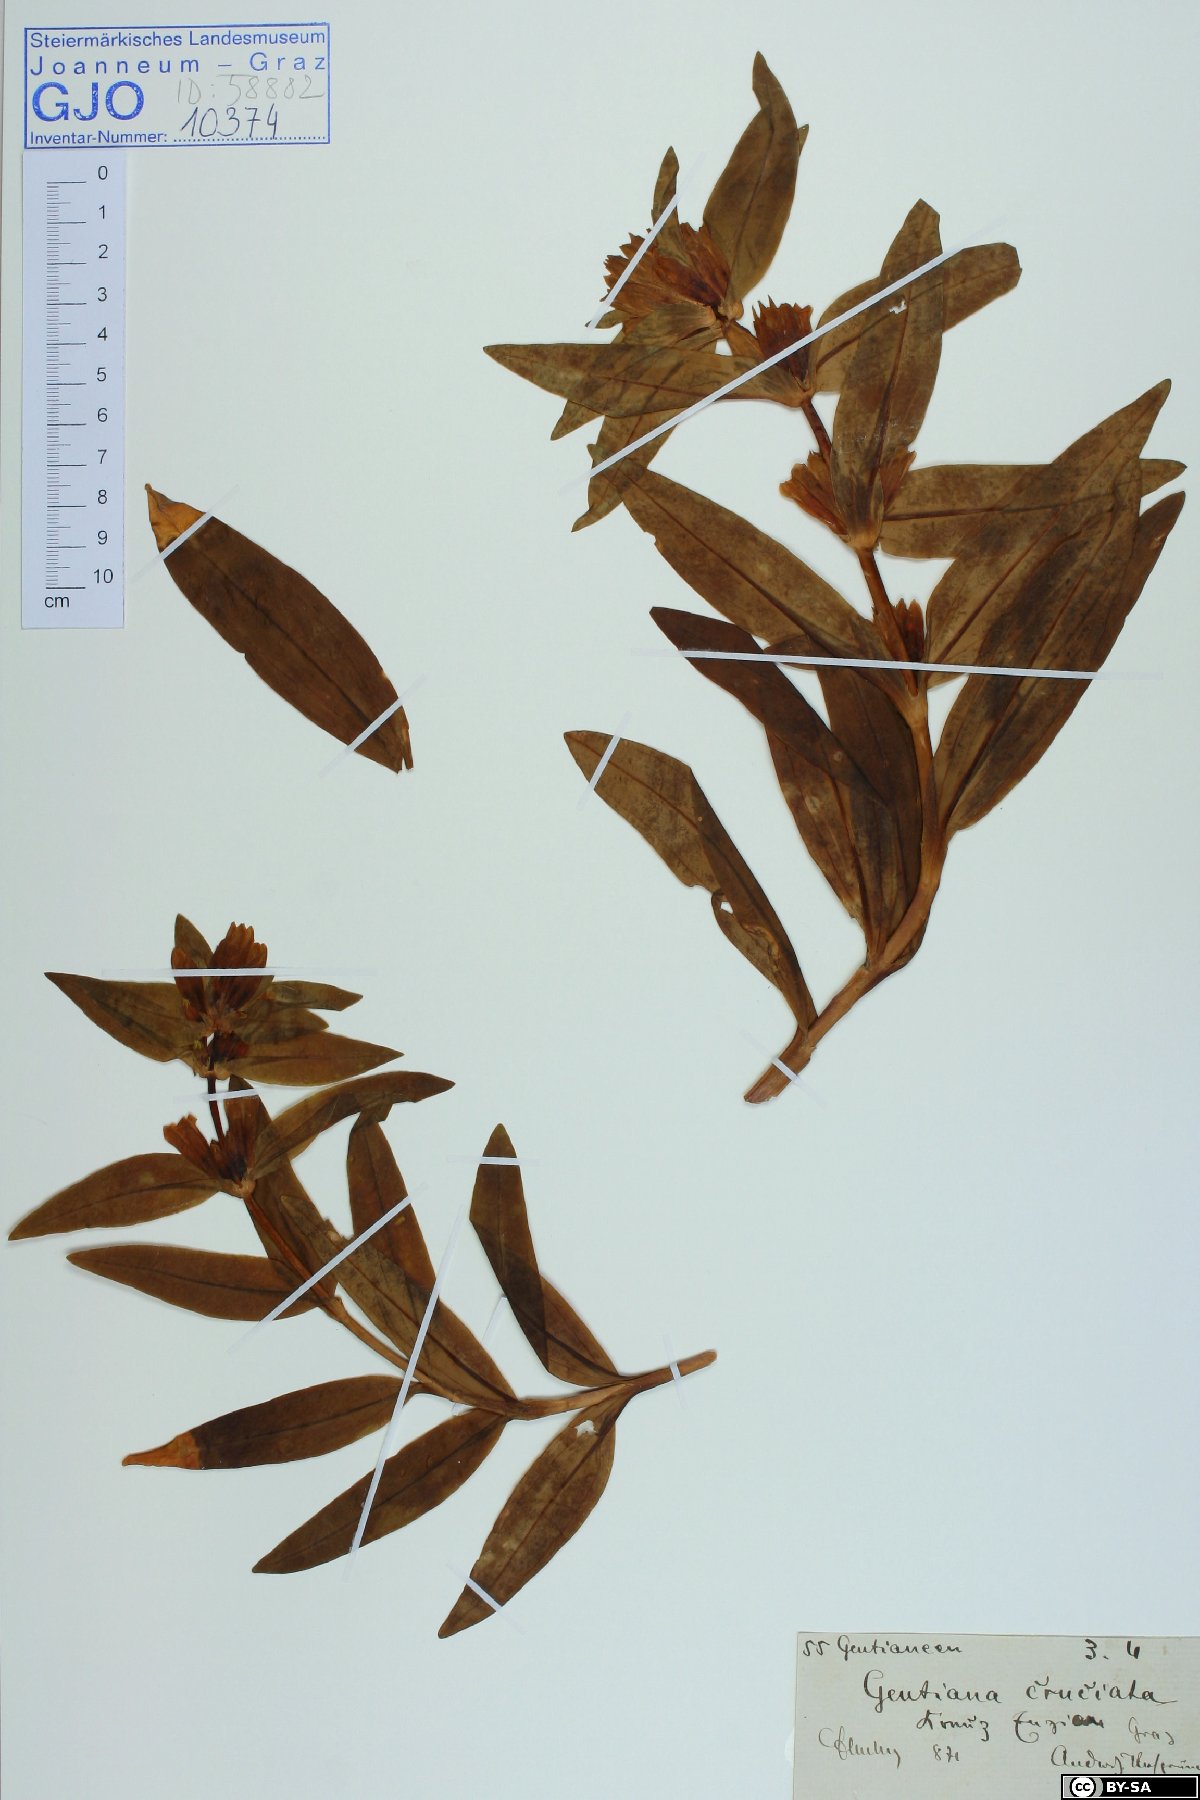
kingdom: Plantae
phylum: Tracheophyta
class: Magnoliopsida
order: Gentianales
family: Gentianaceae
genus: Gentiana
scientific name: Gentiana cruciata
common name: Cross gentian
